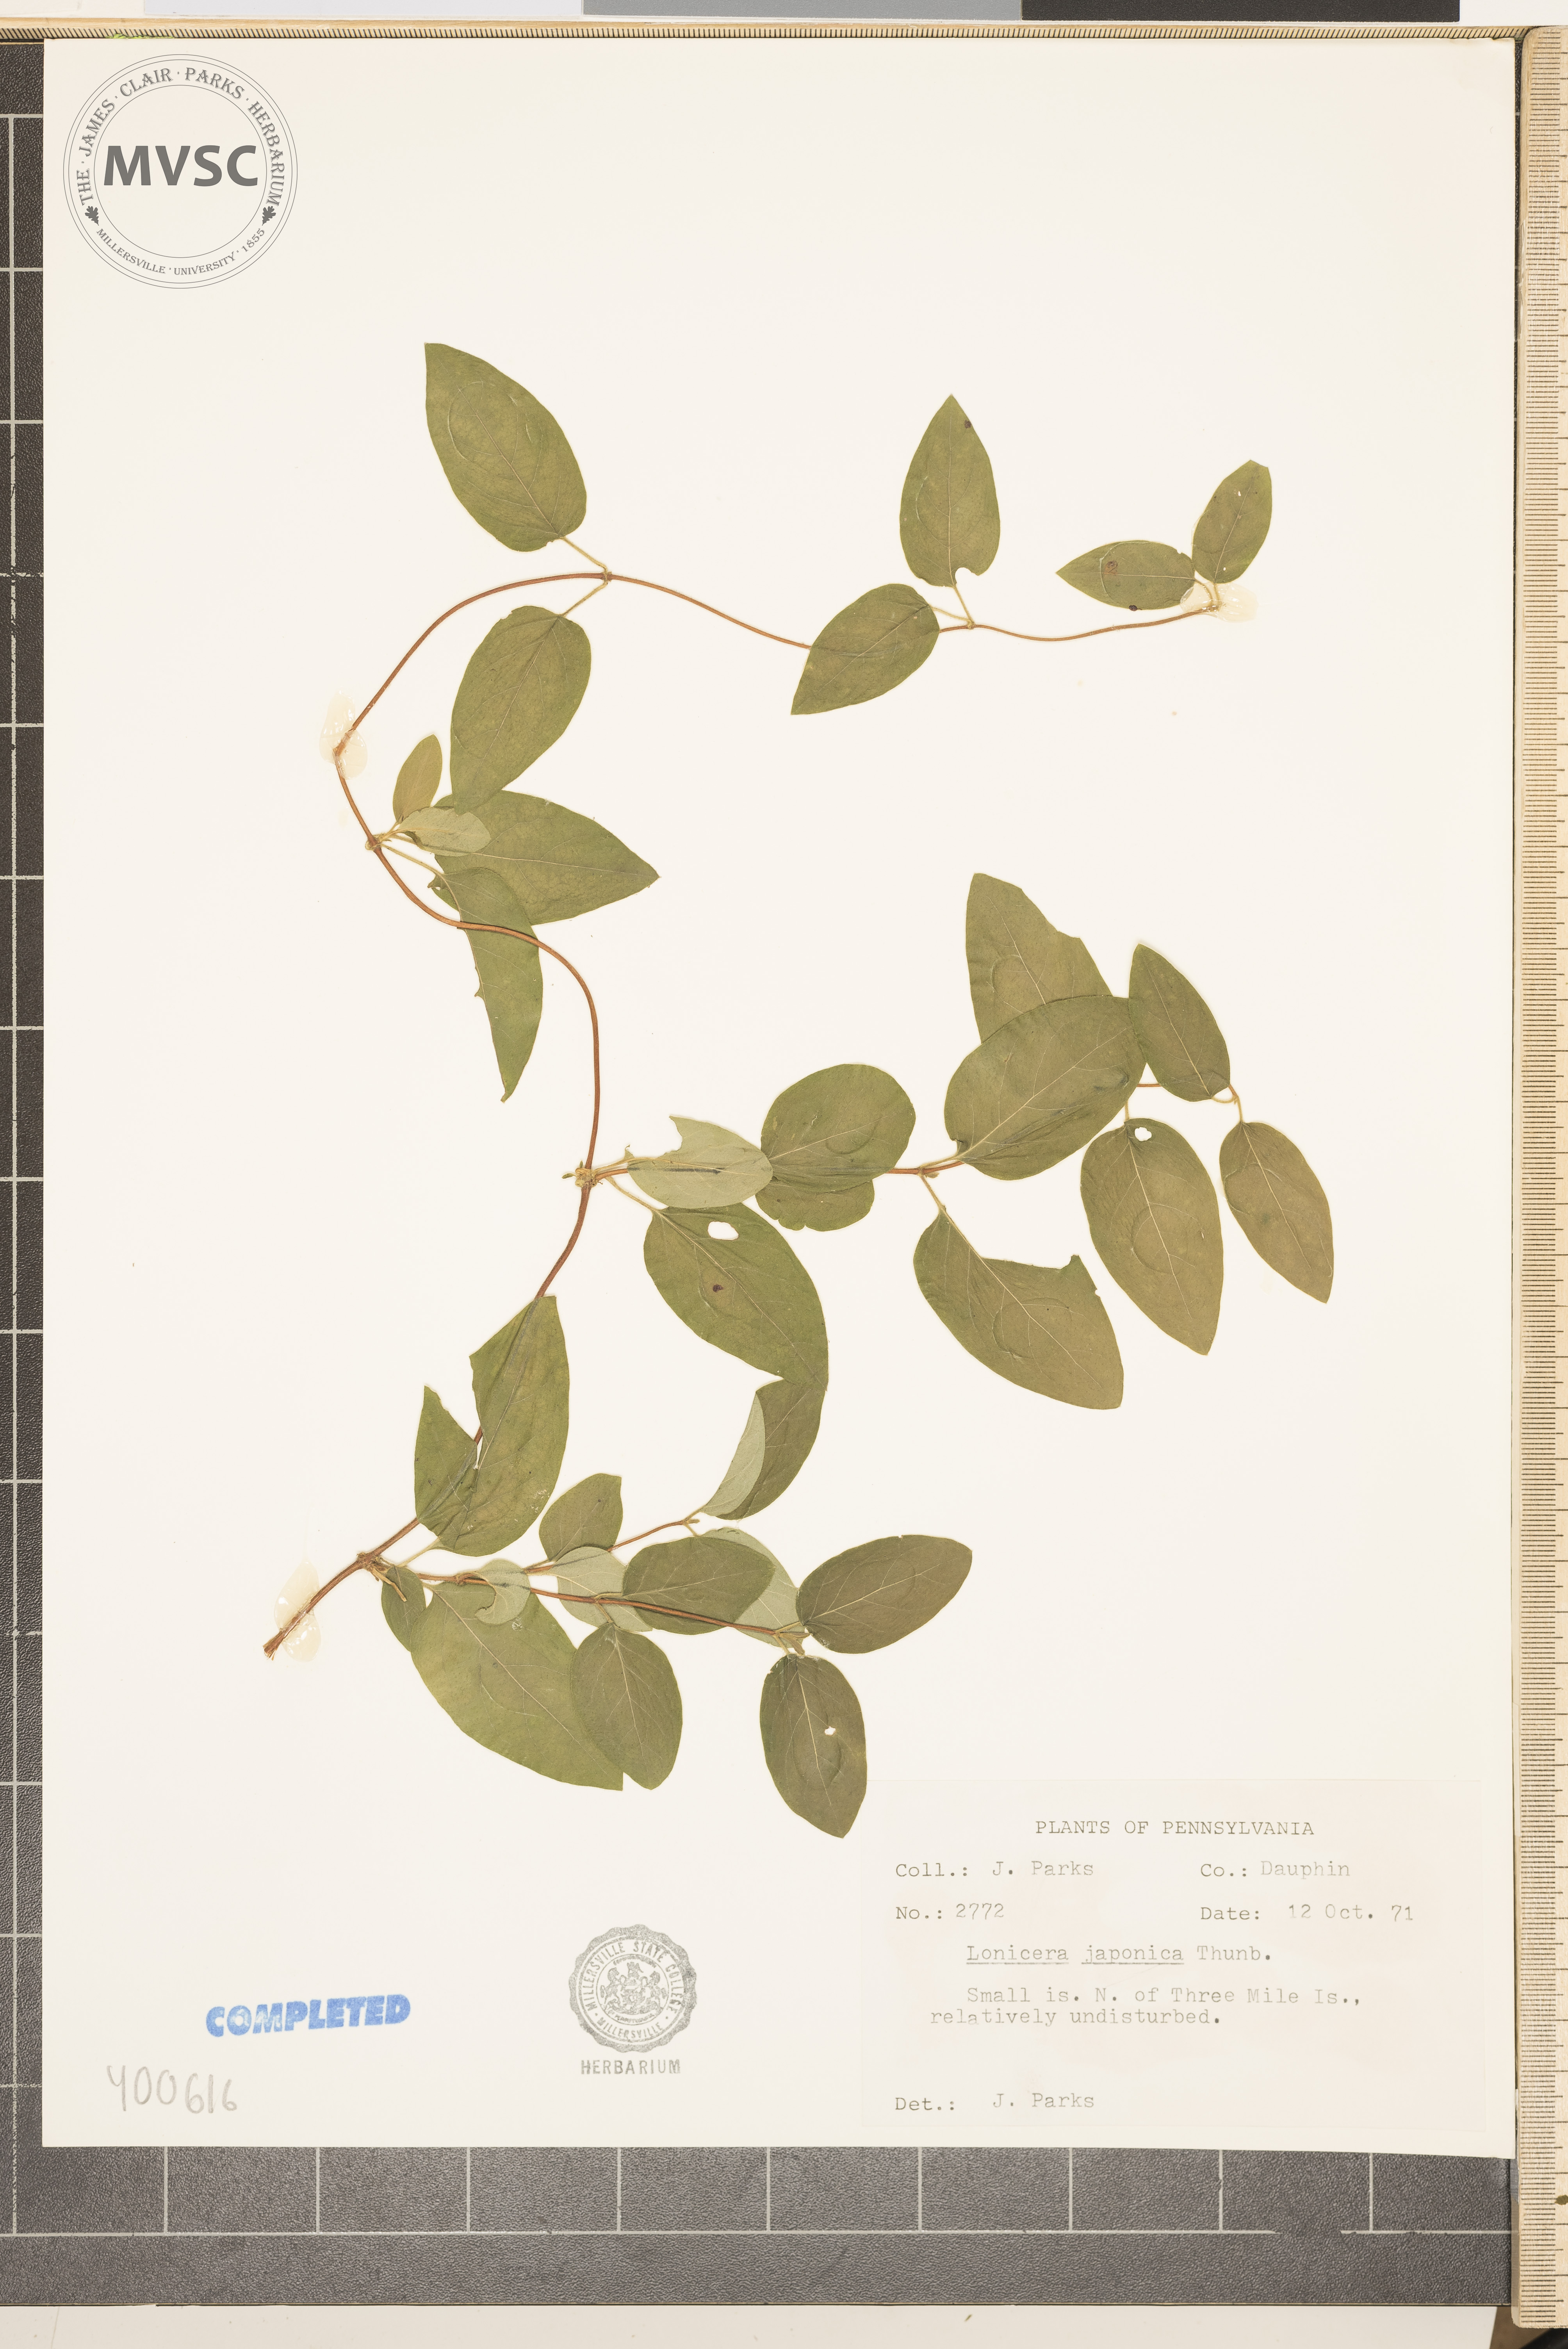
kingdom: Plantae
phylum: Tracheophyta
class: Magnoliopsida
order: Dipsacales
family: Caprifoliaceae
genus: Lonicera
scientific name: Lonicera japonica
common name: Japanese honeysuckle
